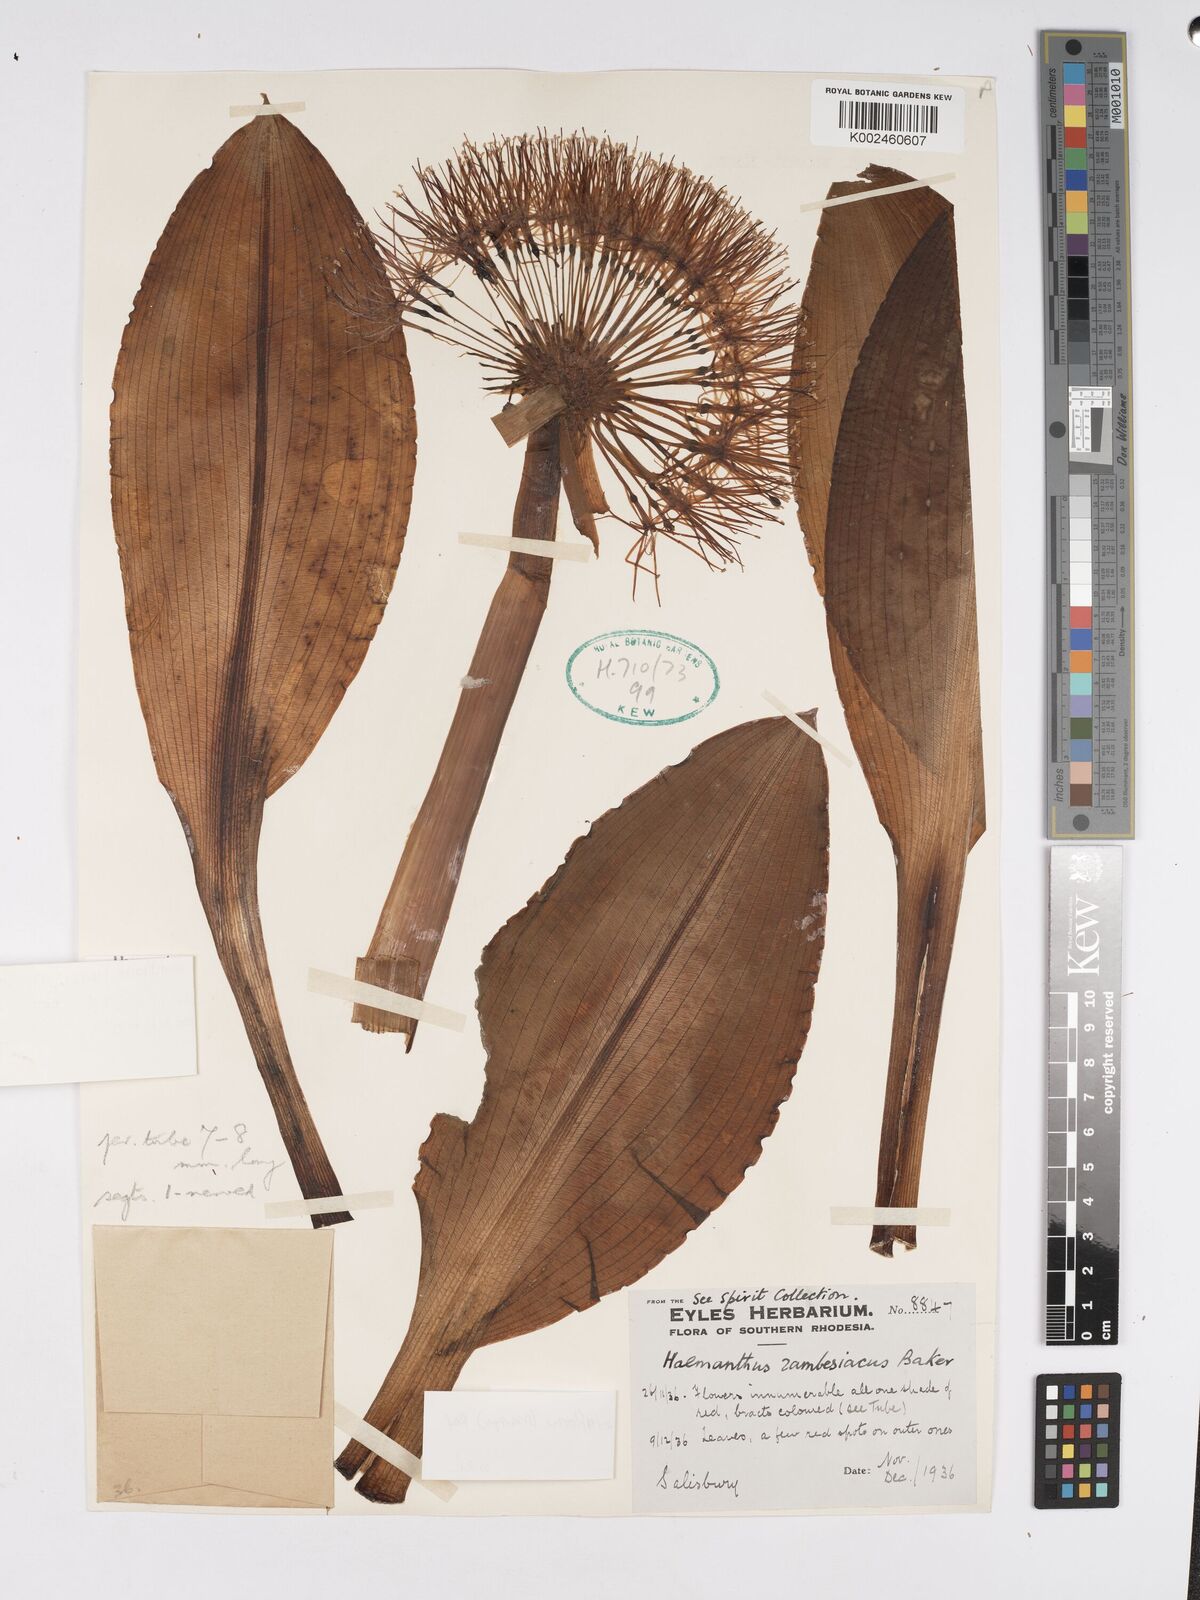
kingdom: Plantae
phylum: Tracheophyta
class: Liliopsida
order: Asparagales
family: Amaryllidaceae
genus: Scadoxus
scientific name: Scadoxus multiflorus
